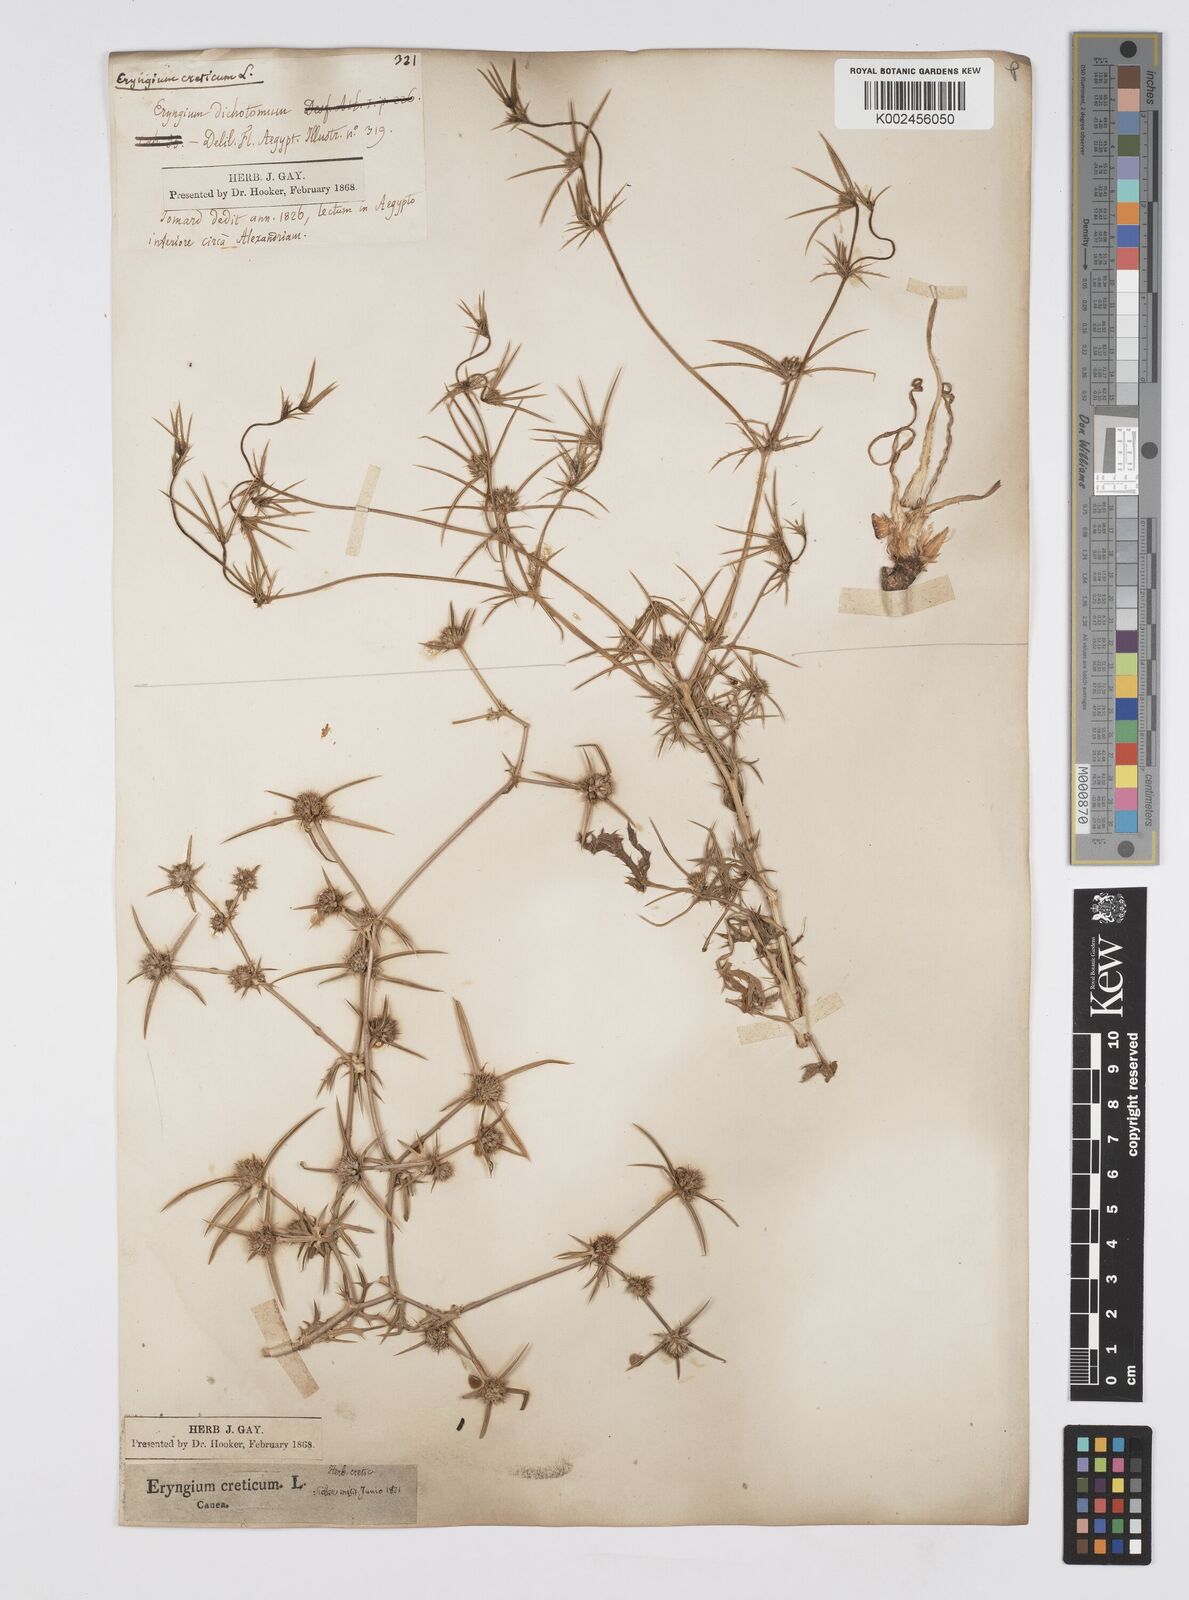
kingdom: Plantae
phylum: Tracheophyta
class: Magnoliopsida
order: Apiales
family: Apiaceae
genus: Eryngium
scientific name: Eryngium creticum
